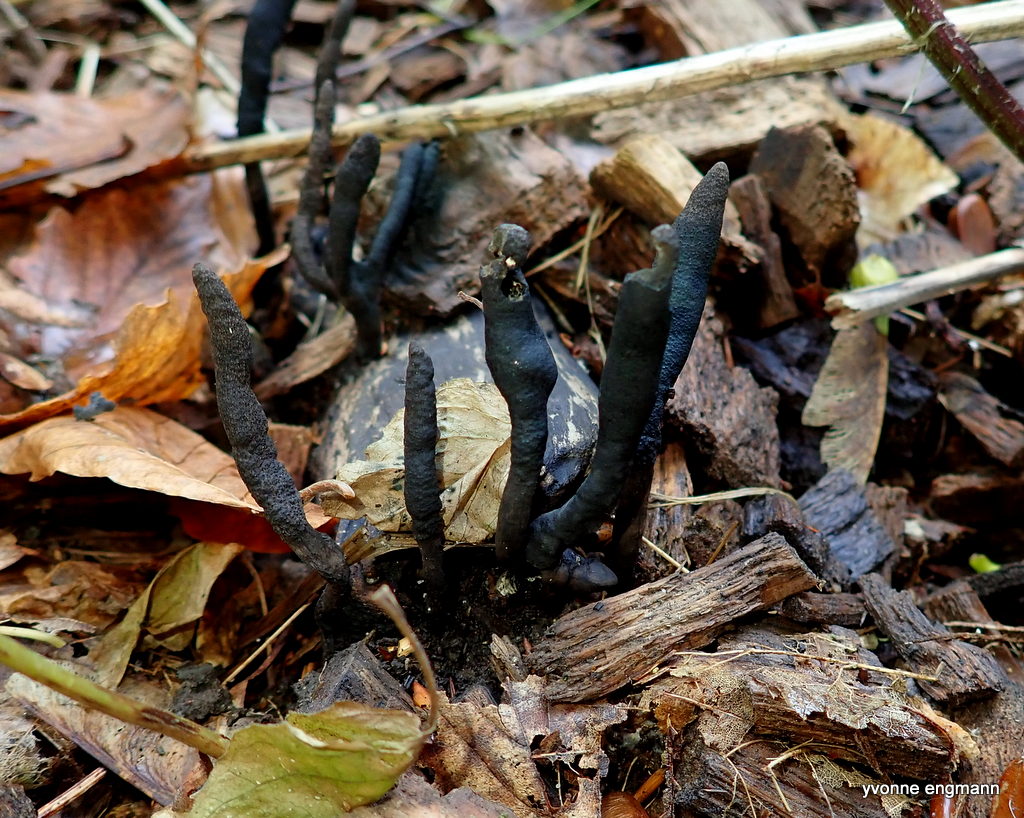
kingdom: Fungi
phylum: Ascomycota
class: Sordariomycetes
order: Xylariales
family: Xylariaceae
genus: Xylaria
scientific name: Xylaria longipes
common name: slank stødsvamp
